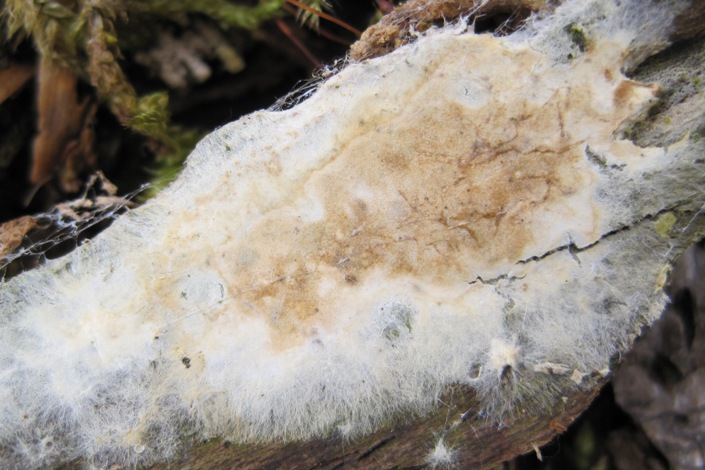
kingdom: Fungi
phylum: Basidiomycota
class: Agaricomycetes
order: Boletales
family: Coniophoraceae
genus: Coniophora
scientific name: Coniophora puteana
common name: gul tømmersvamp
